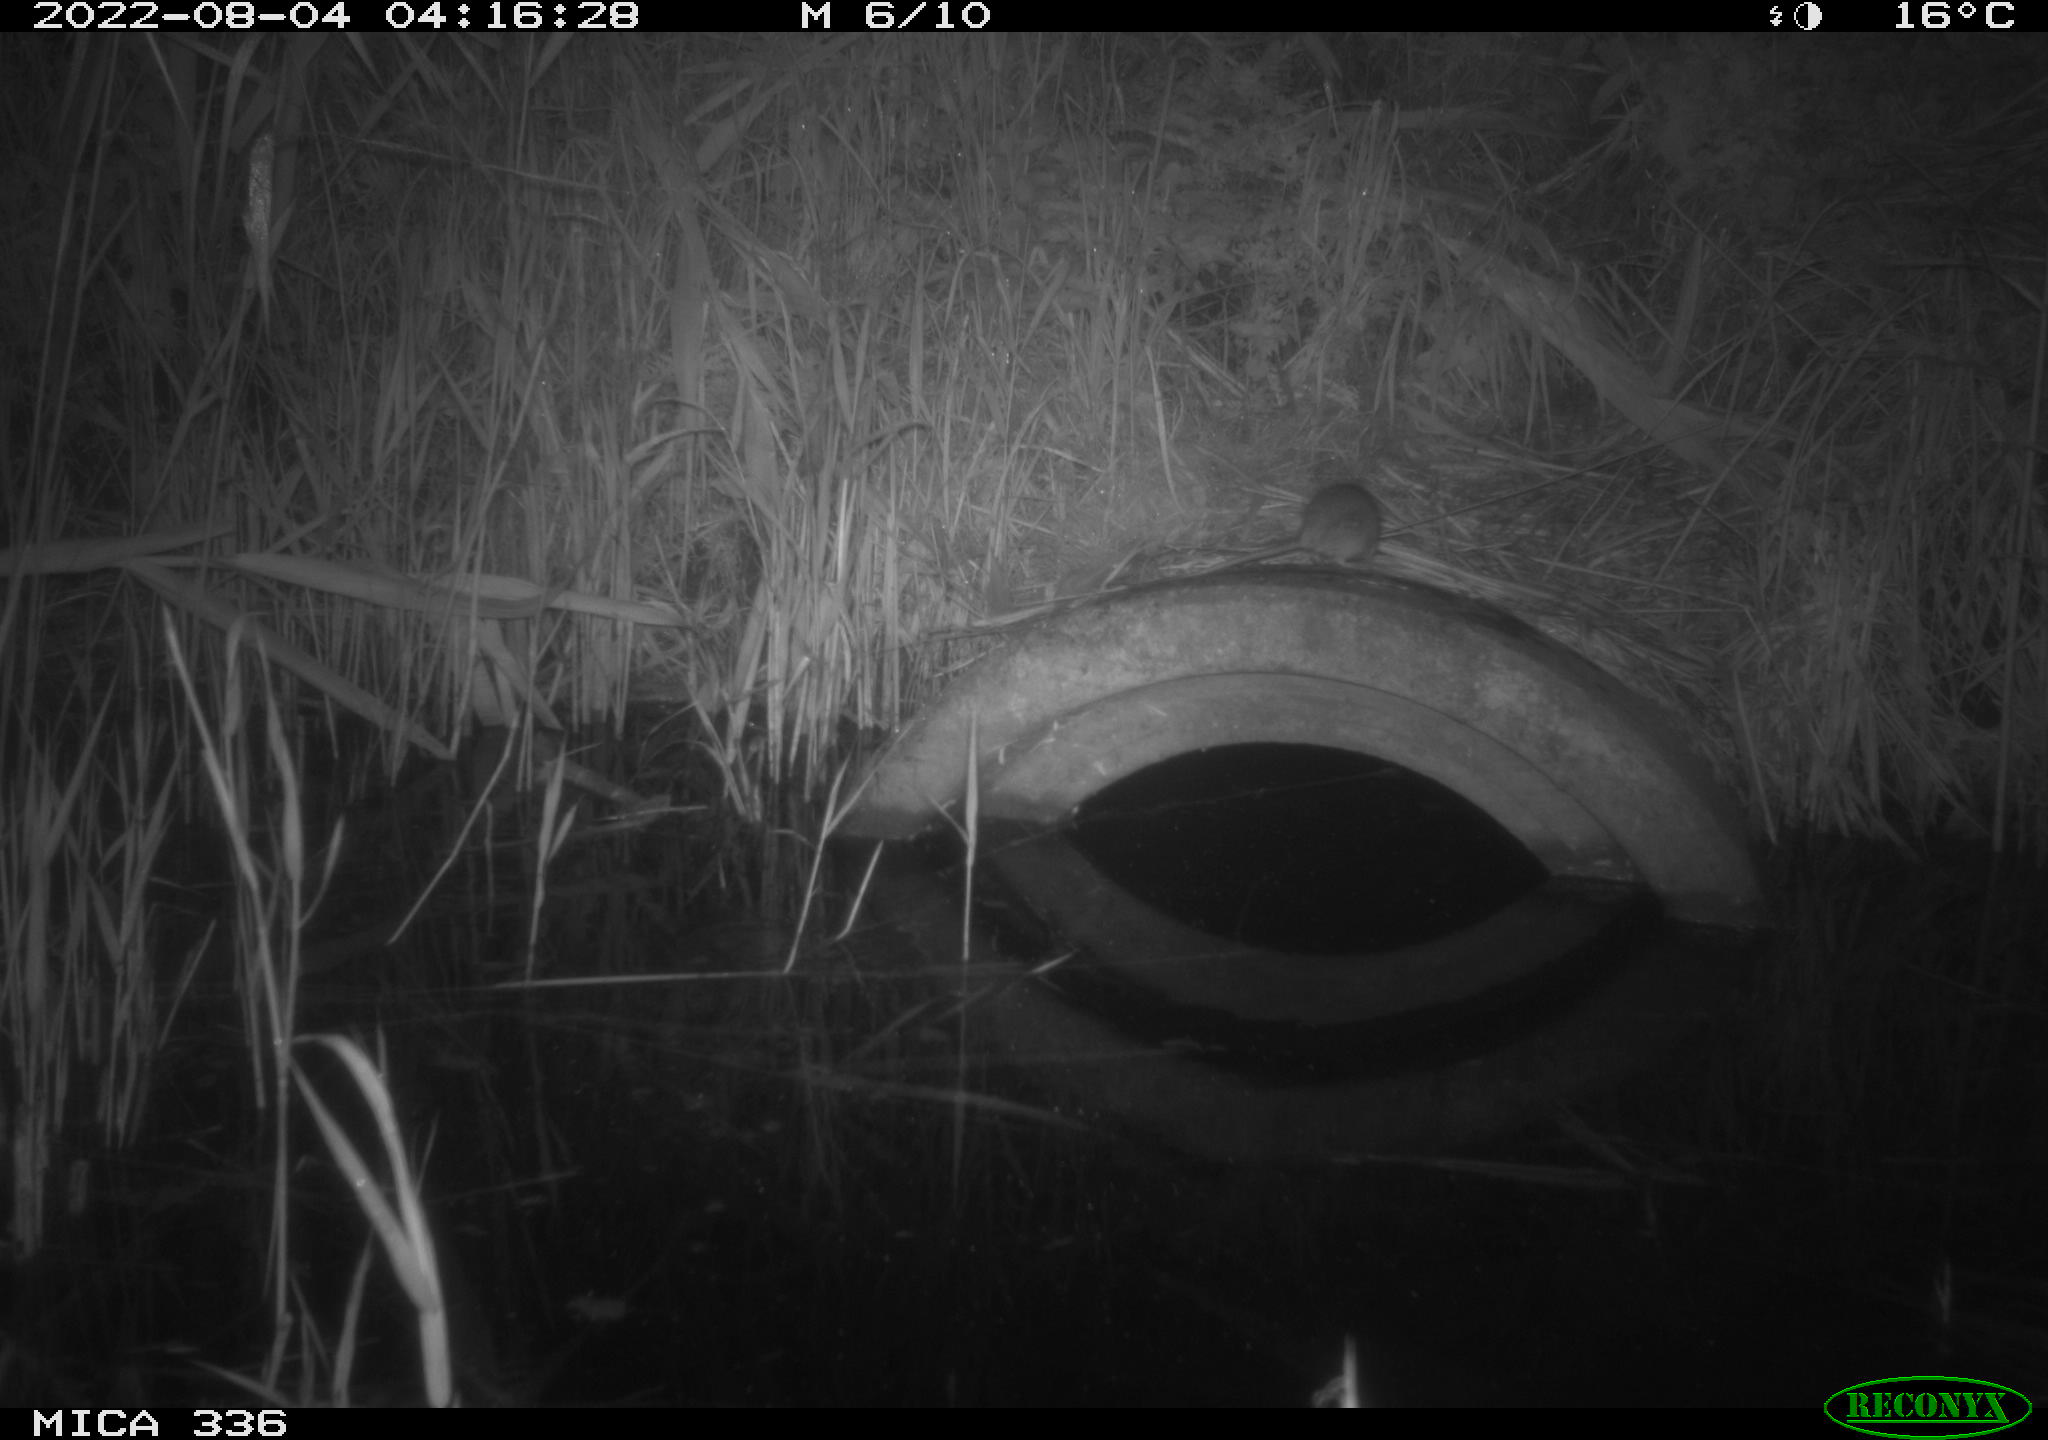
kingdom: Animalia
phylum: Chordata
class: Mammalia
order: Rodentia
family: Muridae
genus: Rattus
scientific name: Rattus norvegicus
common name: Brown rat
